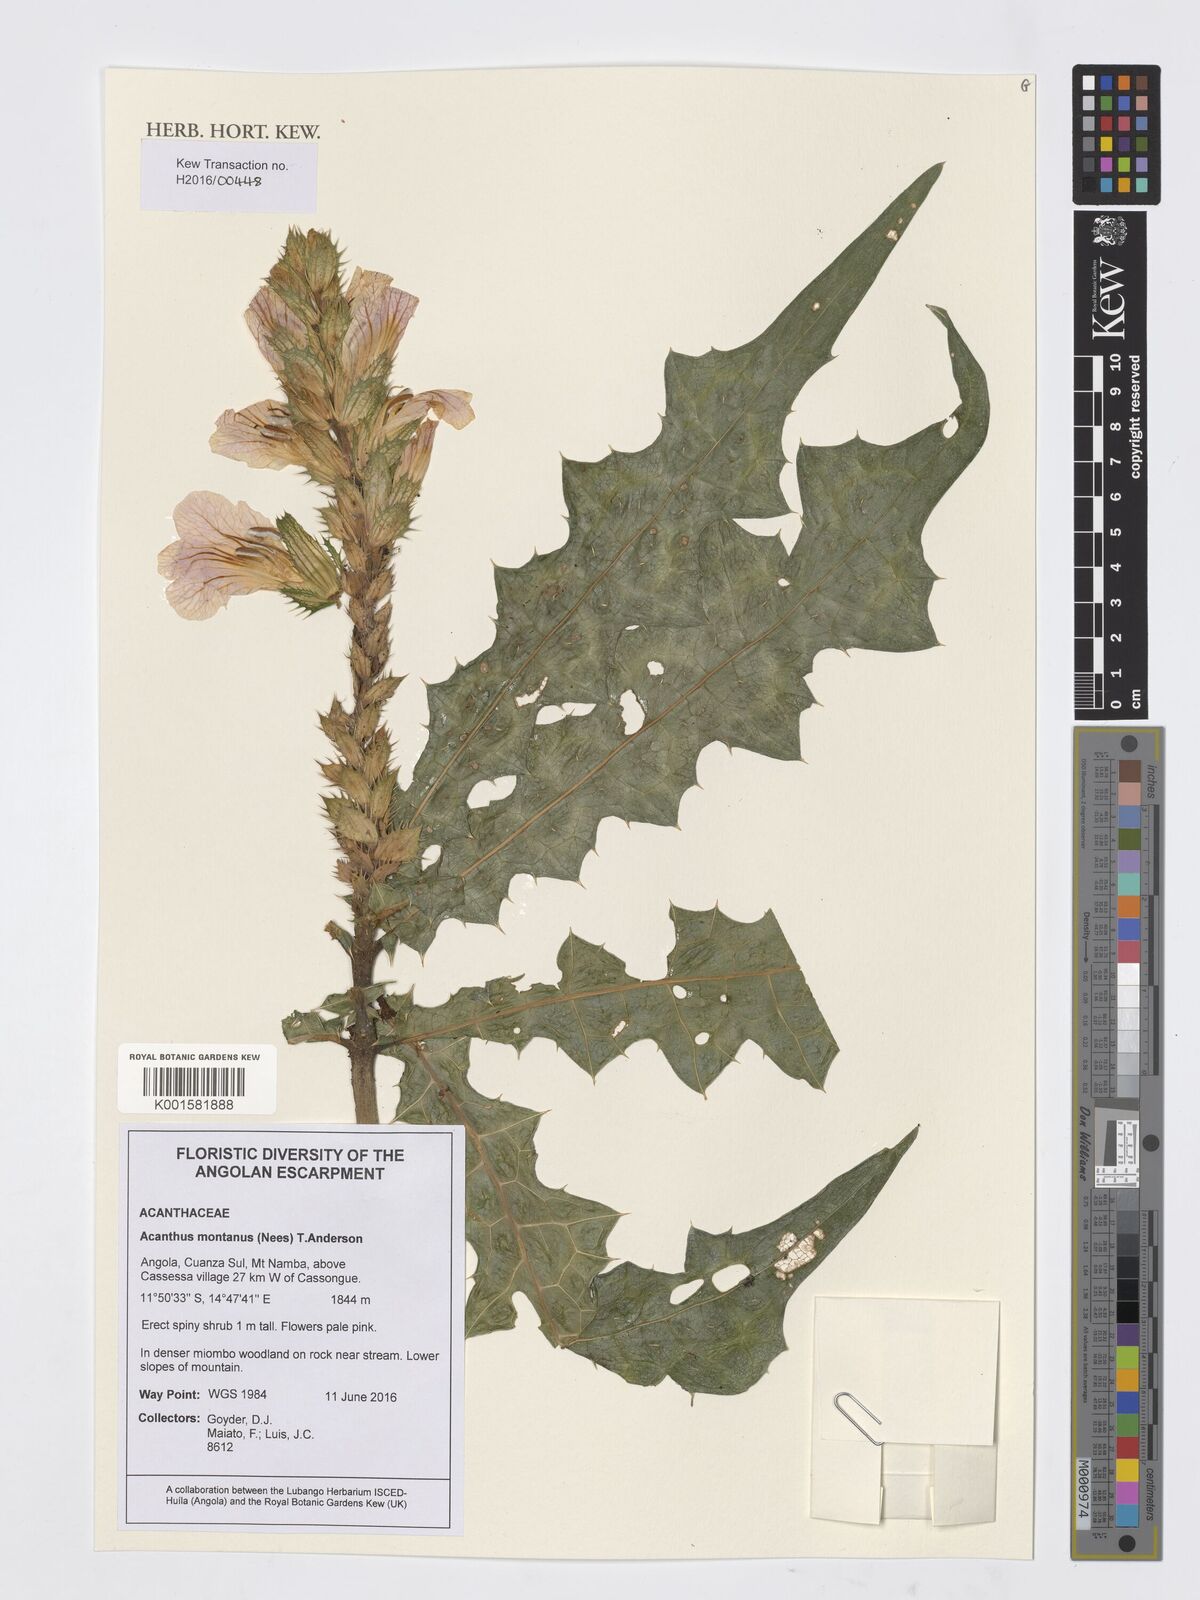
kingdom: Plantae
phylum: Tracheophyta
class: Magnoliopsida
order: Lamiales
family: Acanthaceae
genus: Acanthus
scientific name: Acanthus montanus
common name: Mountain thistle
